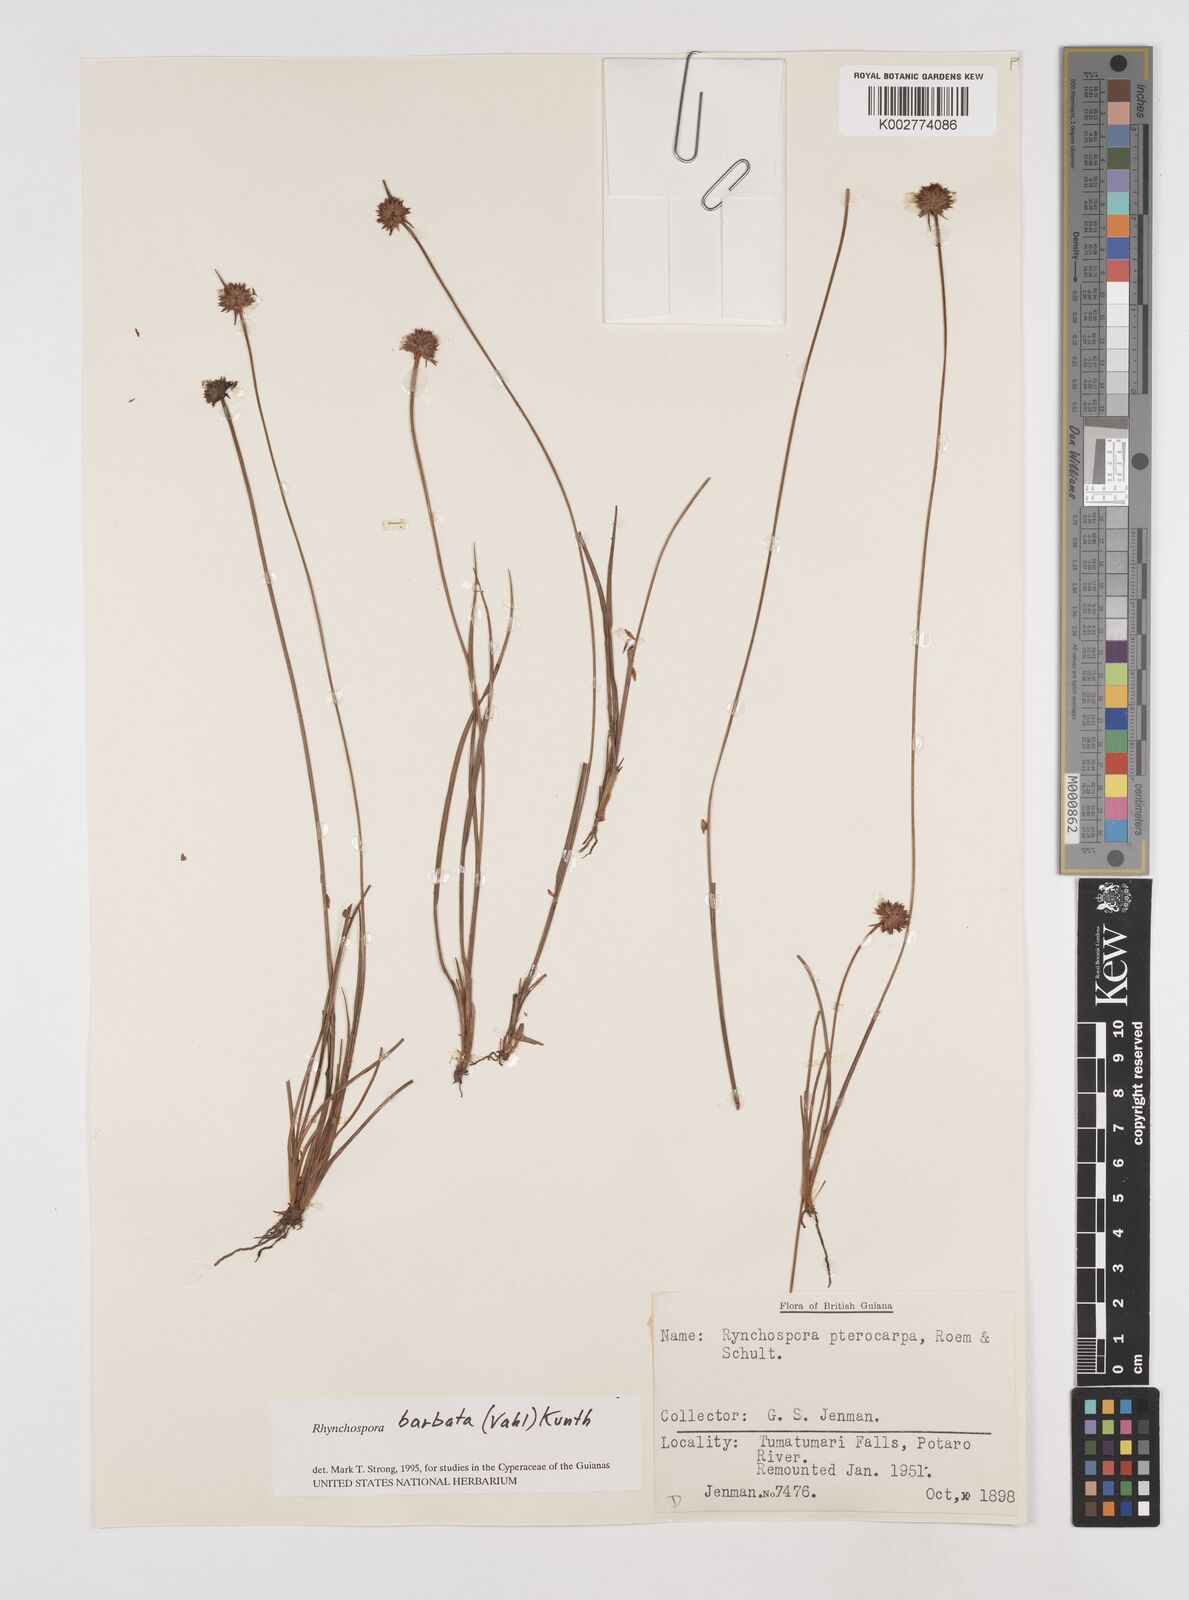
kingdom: Plantae
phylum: Tracheophyta
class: Liliopsida
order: Poales
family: Cyperaceae
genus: Rhynchospora
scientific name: Rhynchospora barbata
